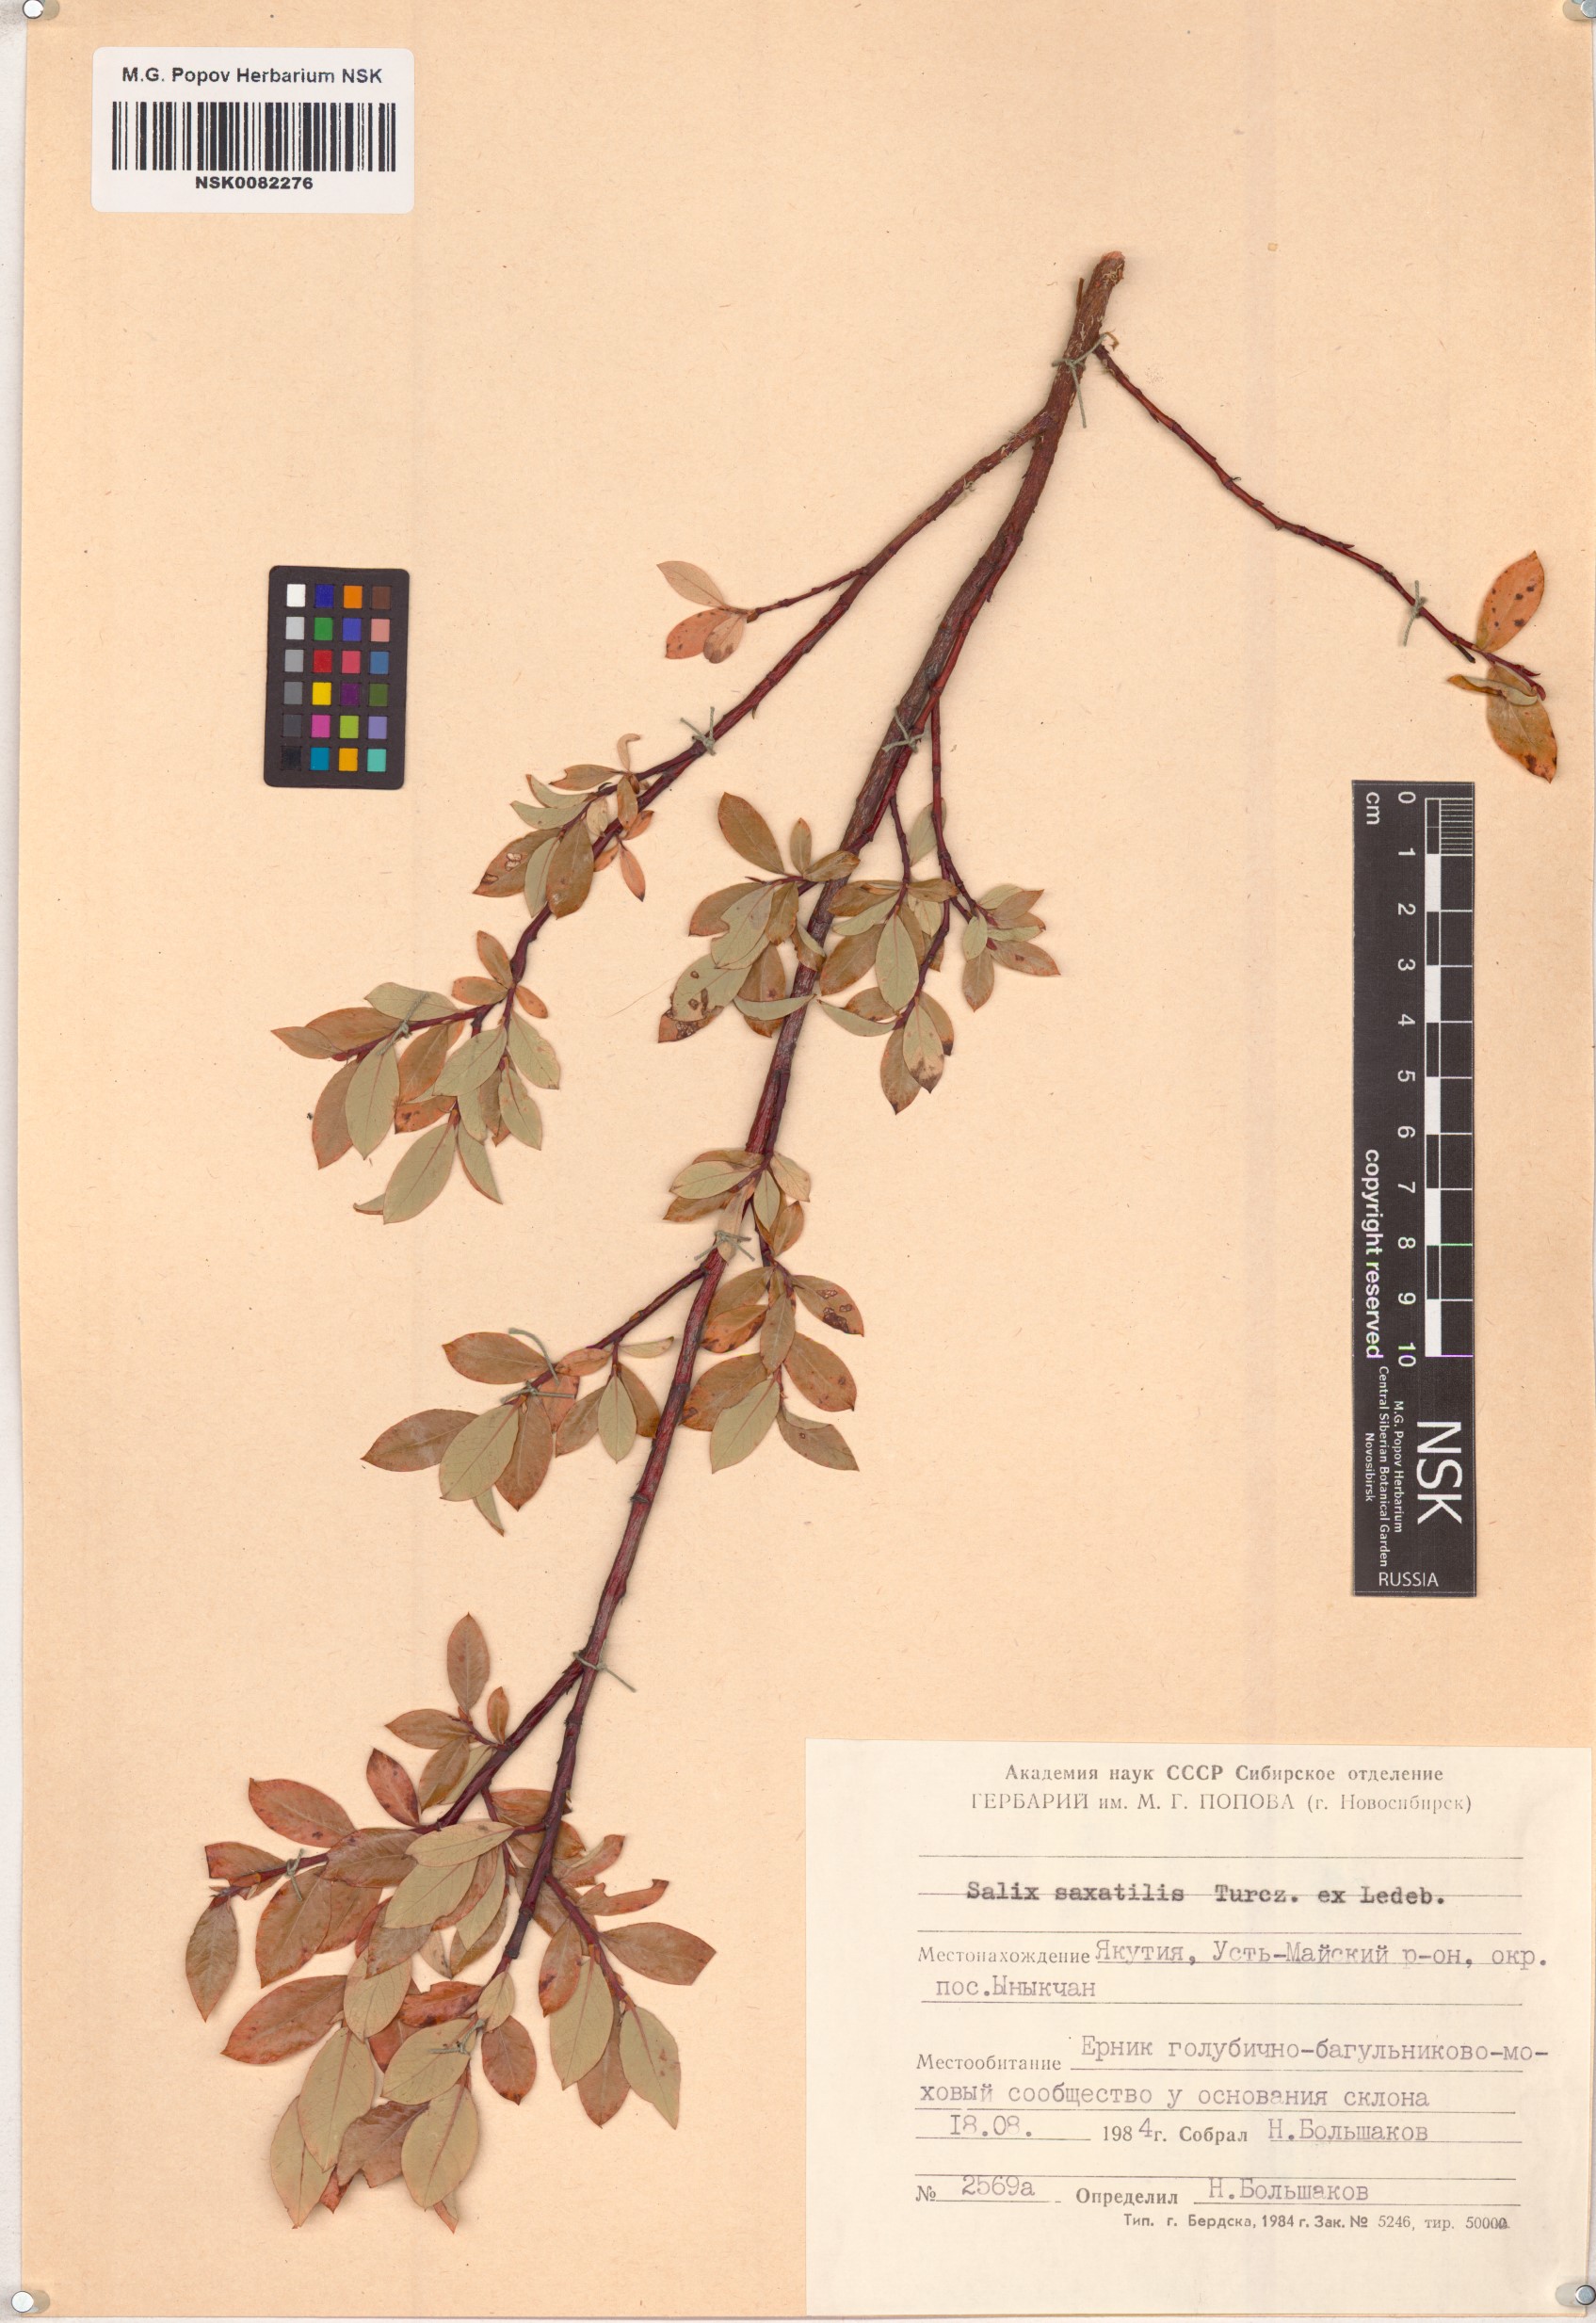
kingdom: Plantae
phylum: Tracheophyta
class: Magnoliopsida
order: Malpighiales
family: Salicaceae
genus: Salix
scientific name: Salix saxatilis
